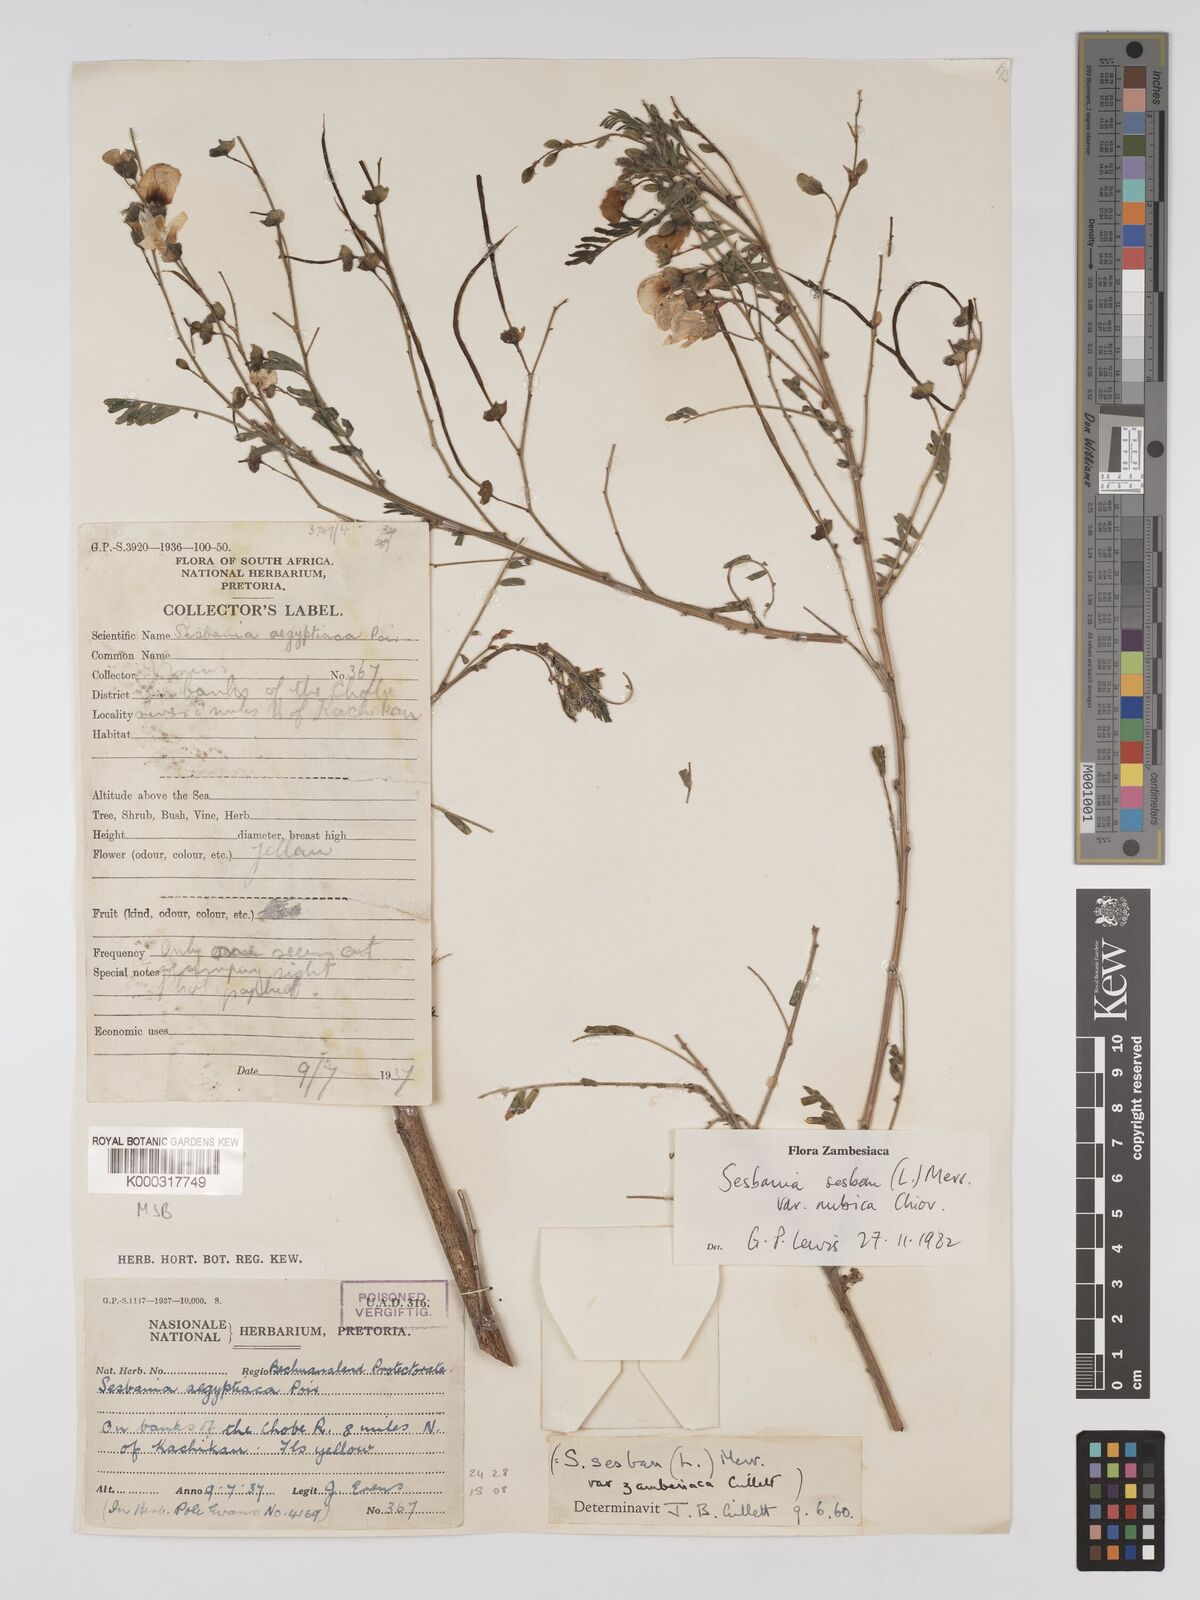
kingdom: Plantae
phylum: Tracheophyta
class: Magnoliopsida
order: Fabales
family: Fabaceae
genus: Sesbania
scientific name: Sesbania sesban
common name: Egyptian sesban
